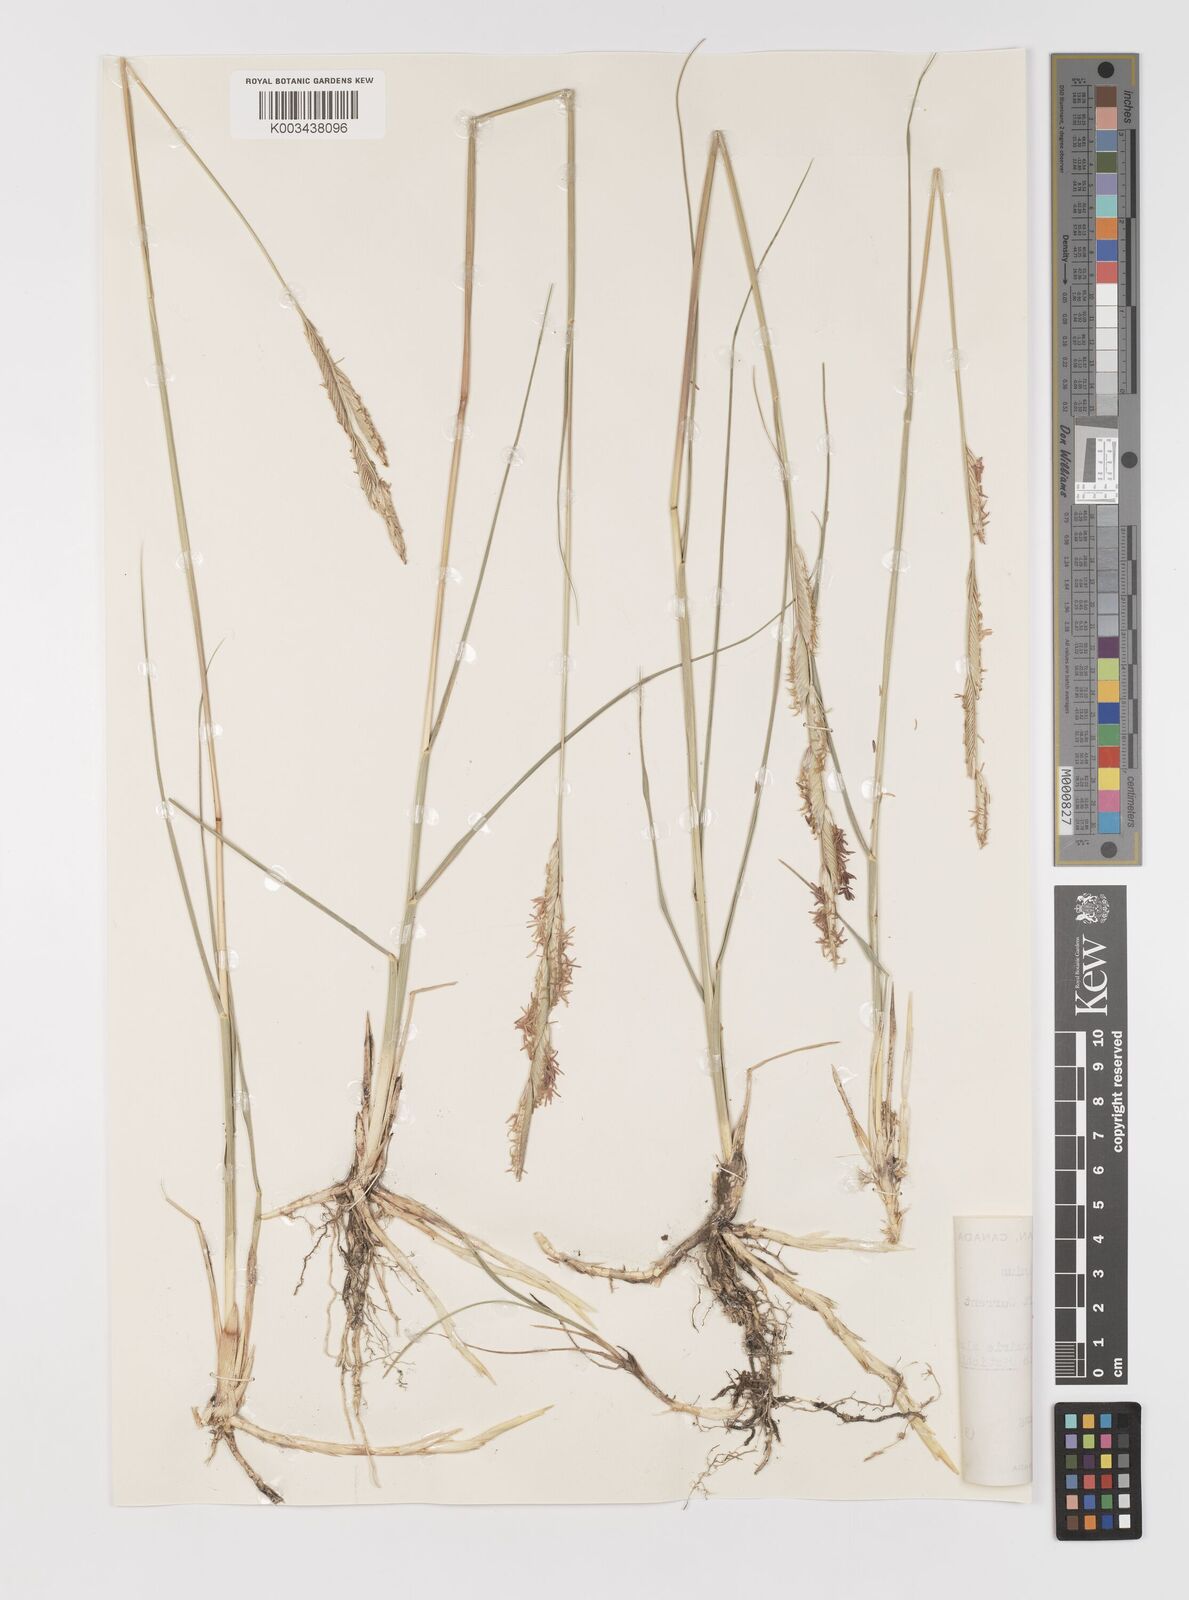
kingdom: Plantae
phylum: Tracheophyta
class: Liliopsida
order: Poales
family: Poaceae
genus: Sporobolus
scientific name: Sporobolus hookerianus
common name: Alkali cordgrass
